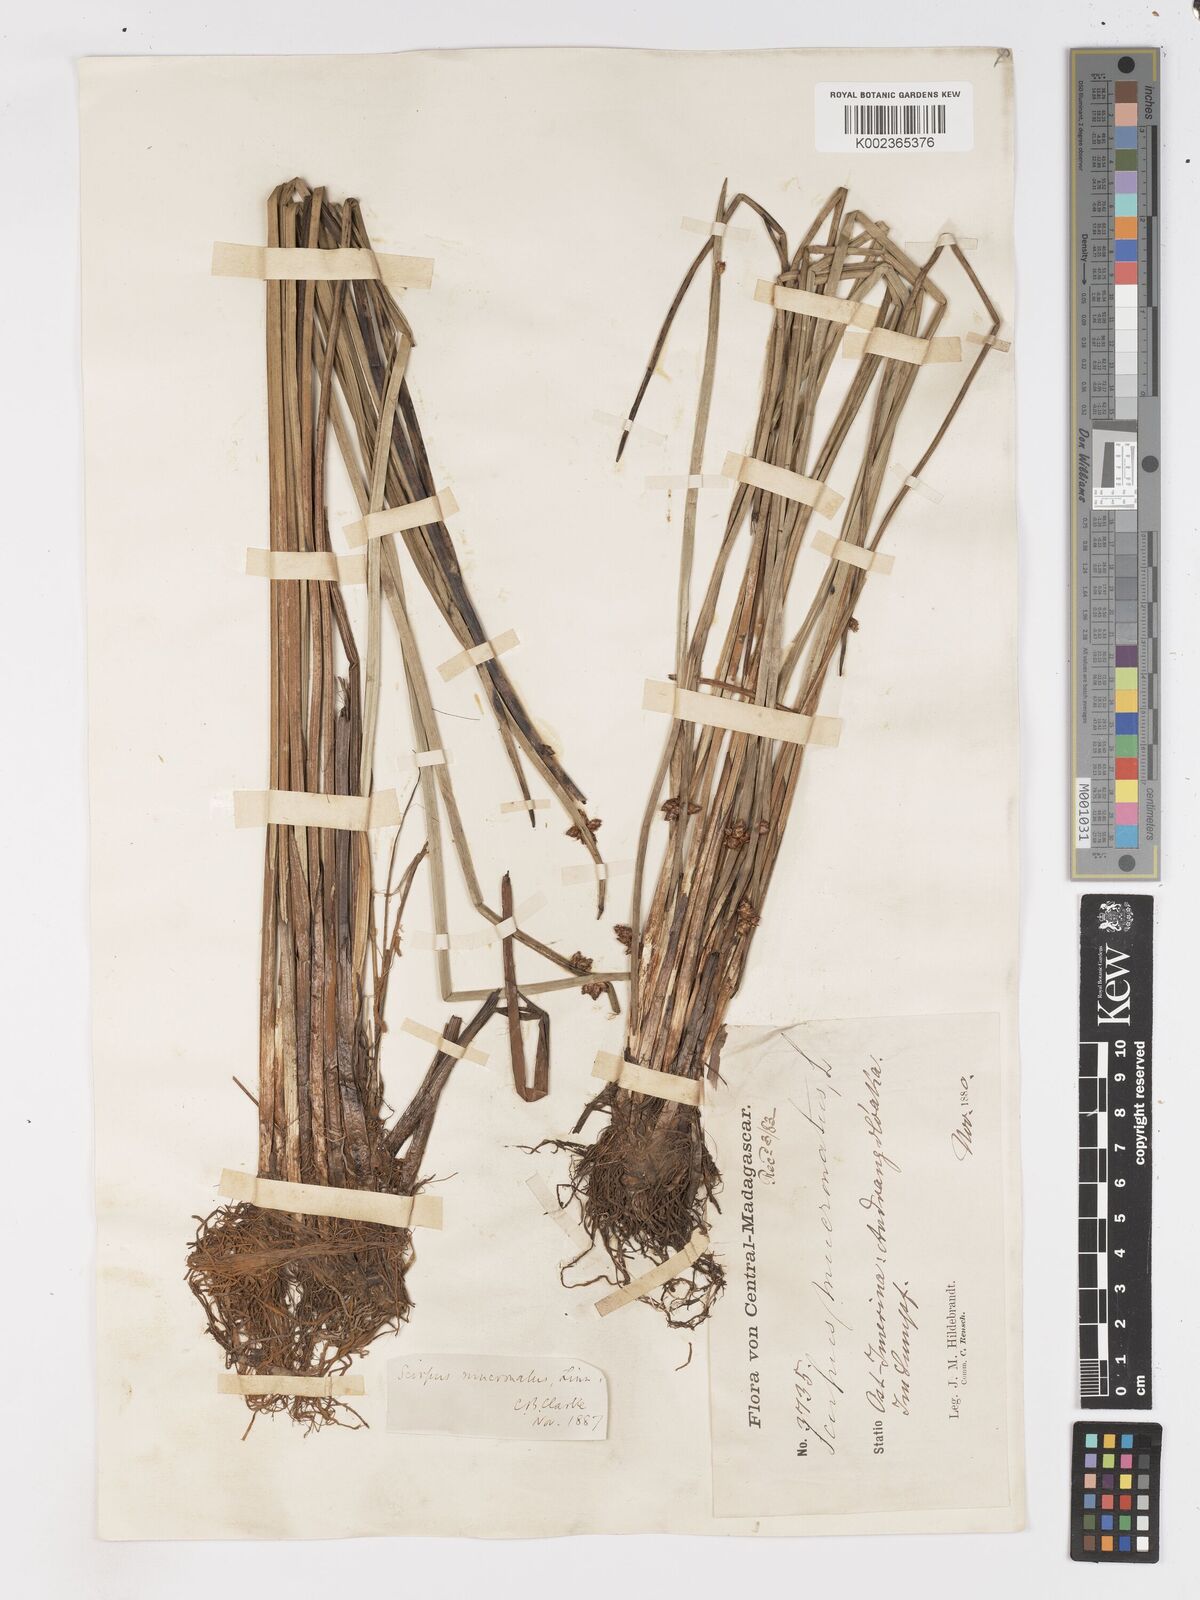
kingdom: Plantae
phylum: Tracheophyta
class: Liliopsida
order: Poales
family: Cyperaceae
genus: Schoenoplectiella
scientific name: Schoenoplectiella mucronata
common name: Bog bulrush
